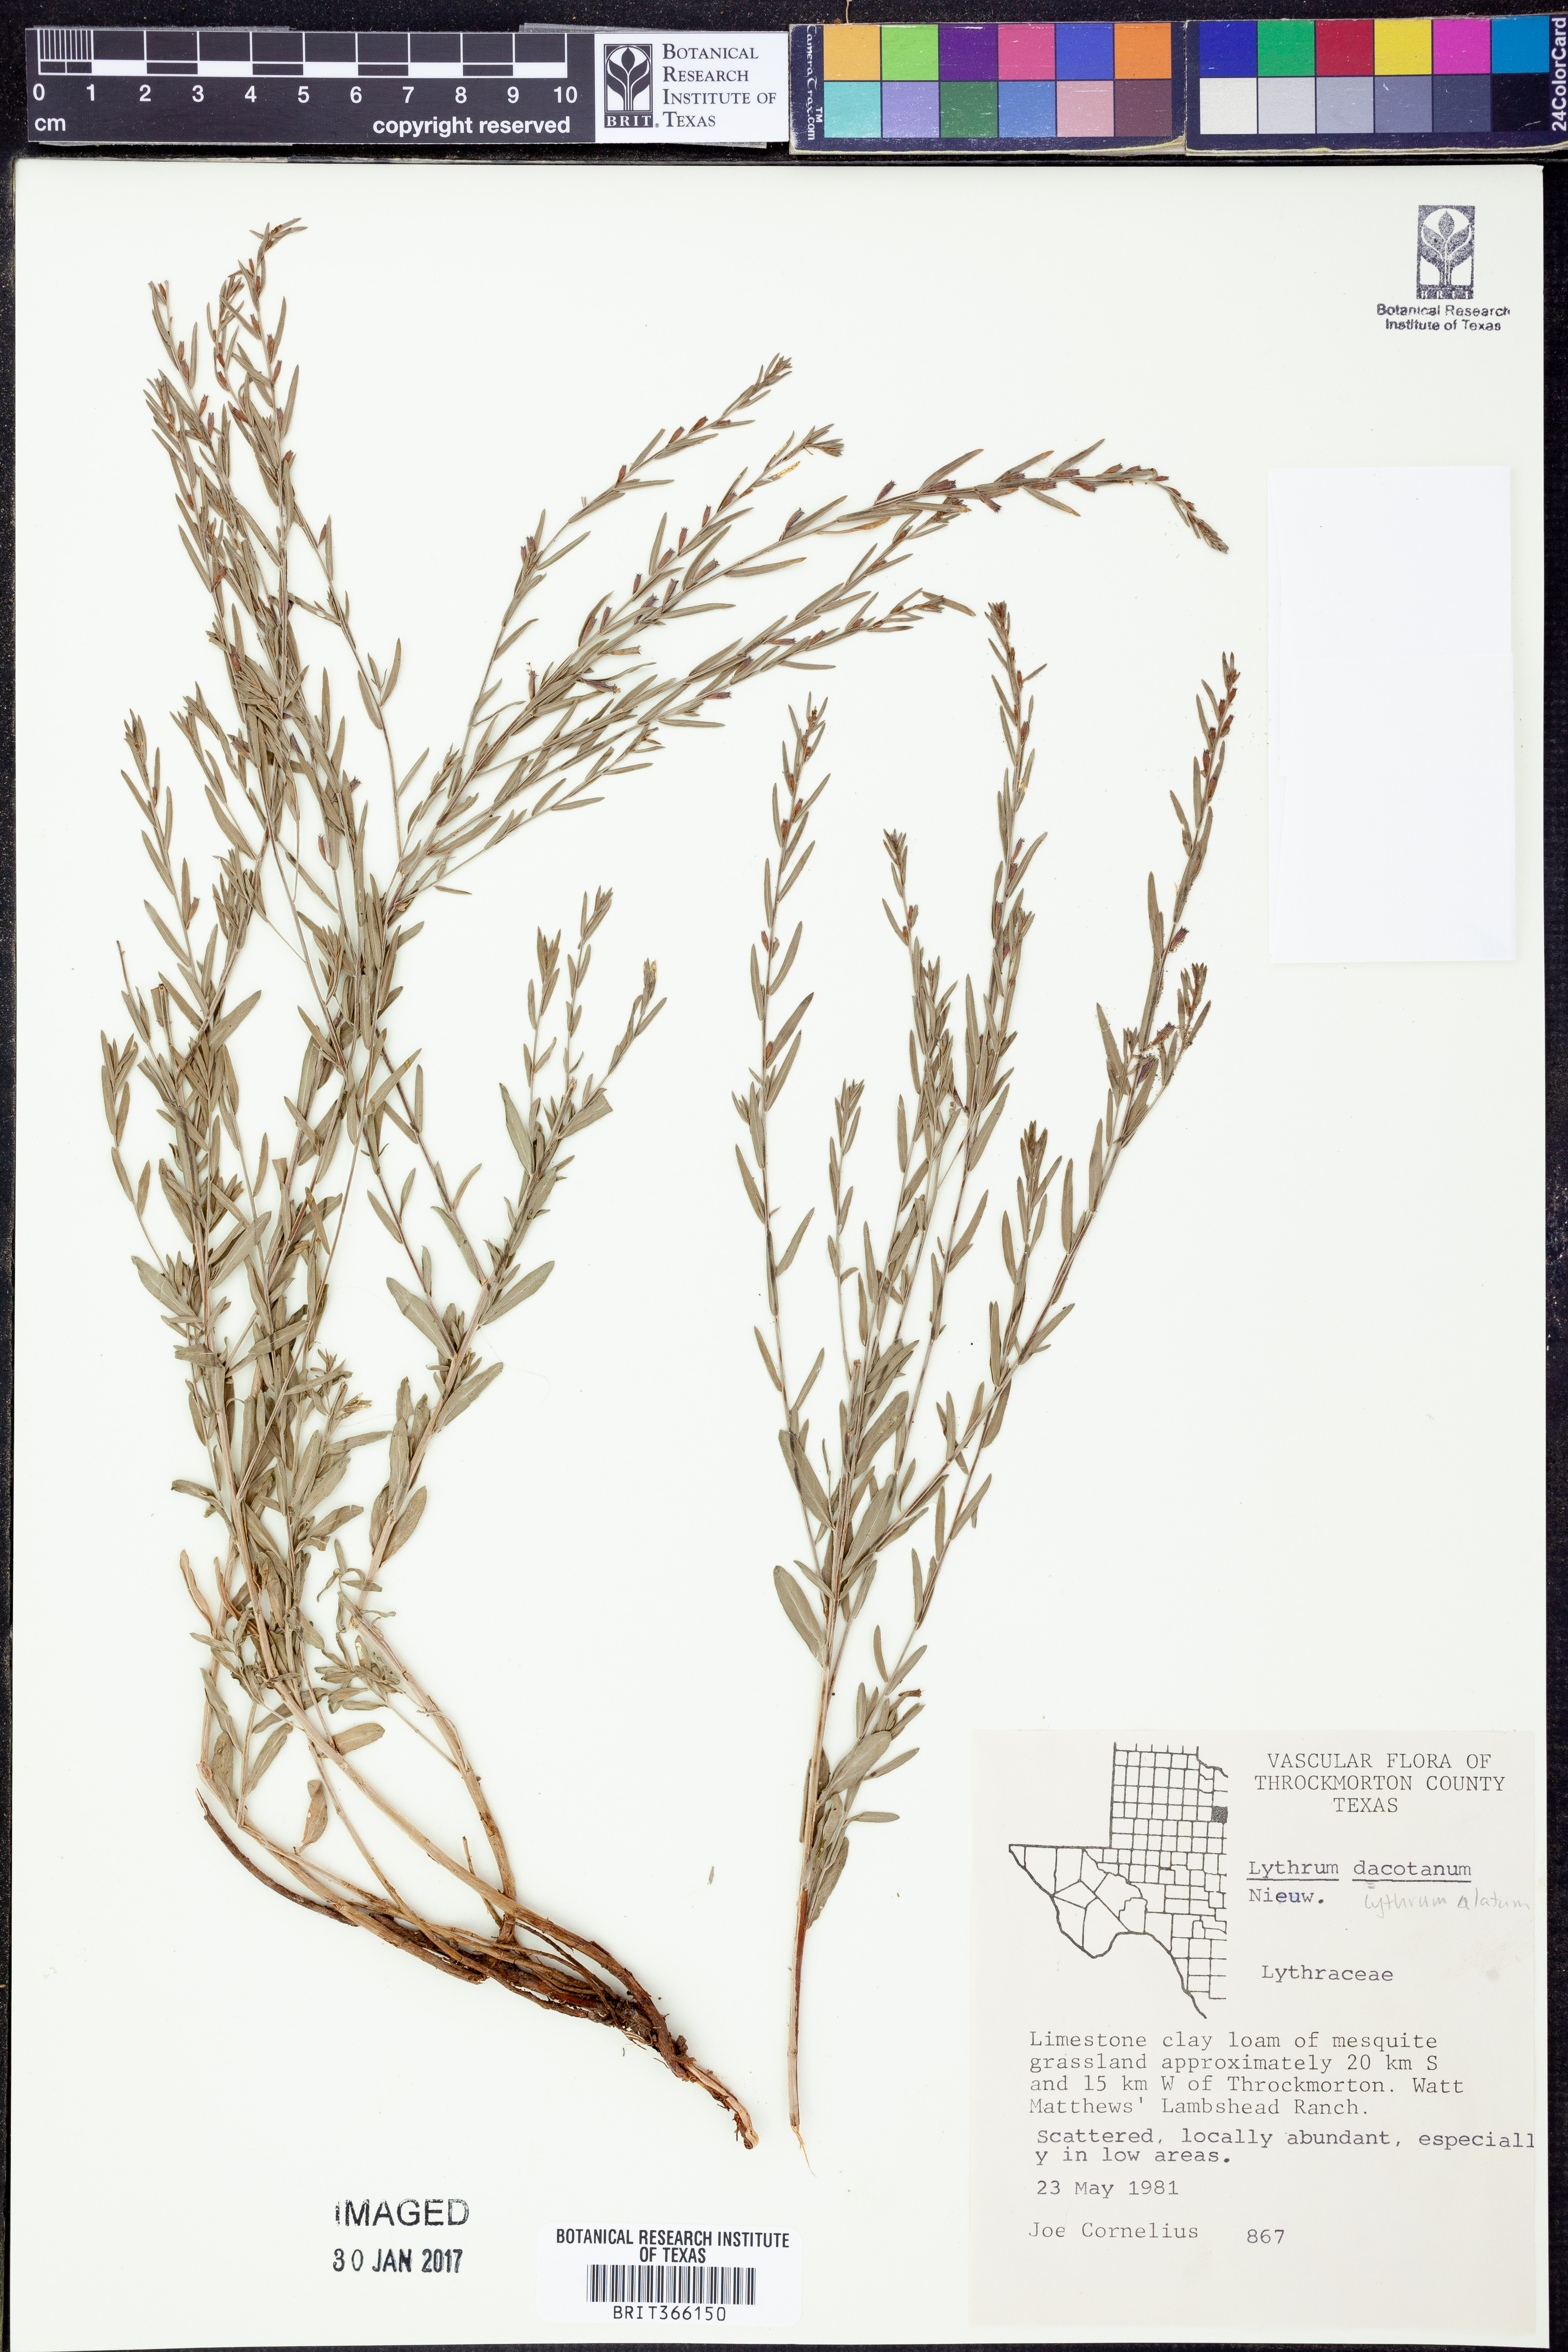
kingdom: Plantae
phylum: Tracheophyta
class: Magnoliopsida
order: Myrtales
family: Lythraceae
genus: Lythrum
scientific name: Lythrum alatum
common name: Winged loosestrife
